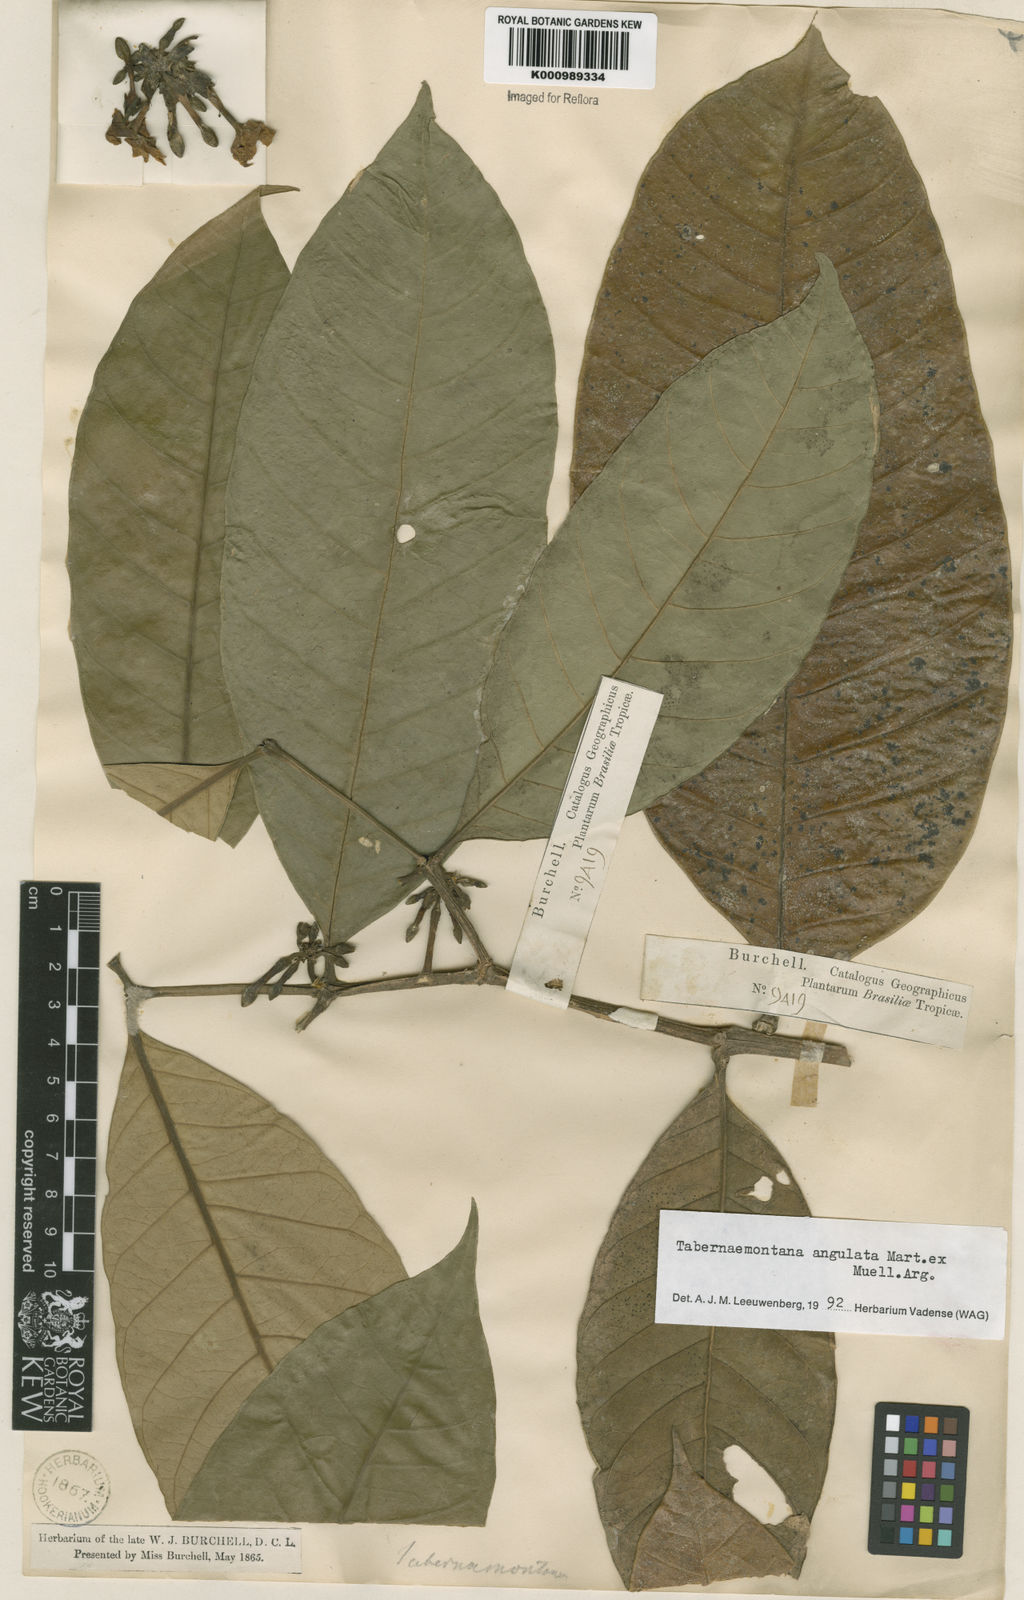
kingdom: Plantae
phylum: Tracheophyta
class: Magnoliopsida
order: Gentianales
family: Apocynaceae
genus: Tabernaemontana
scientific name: Tabernaemontana
